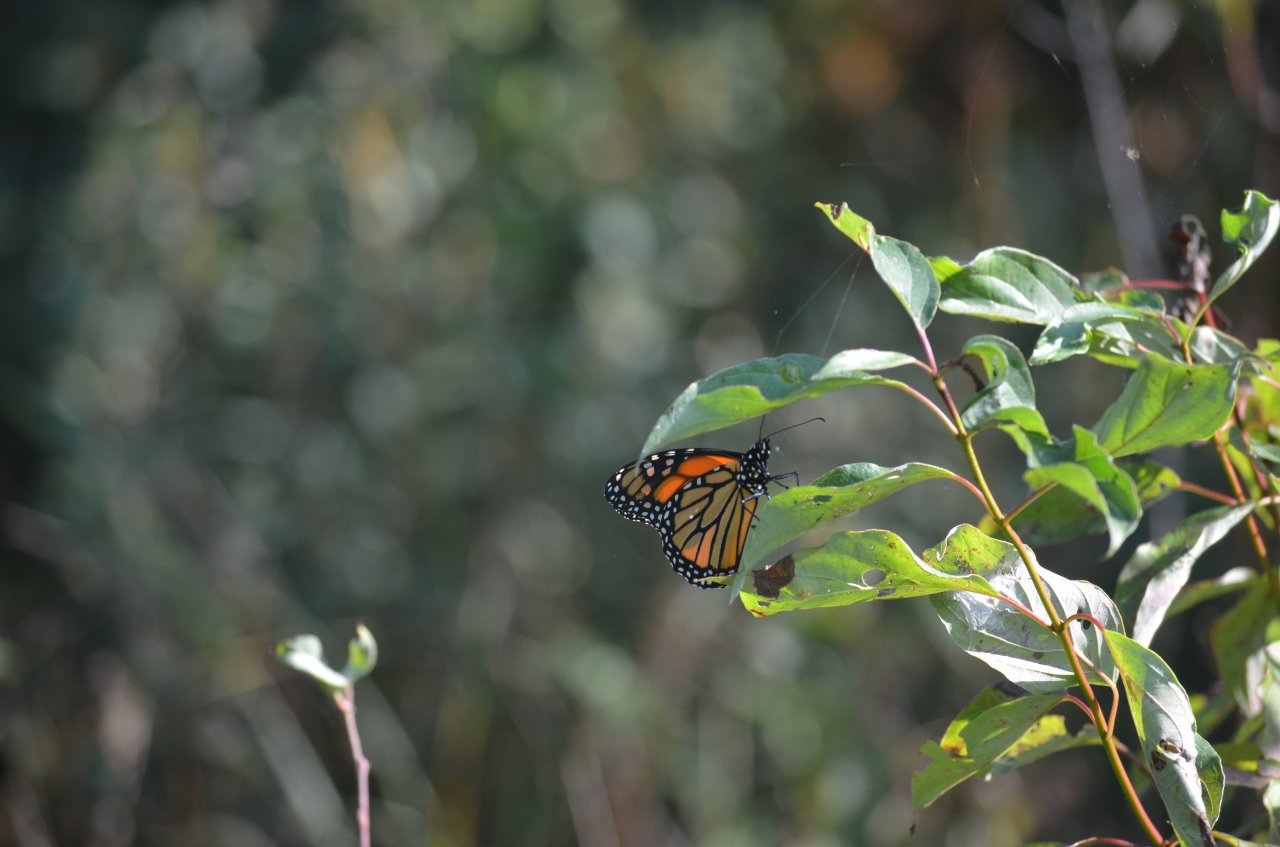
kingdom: Animalia
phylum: Arthropoda
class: Insecta
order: Lepidoptera
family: Nymphalidae
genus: Danaus
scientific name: Danaus plexippus
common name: Monarch
